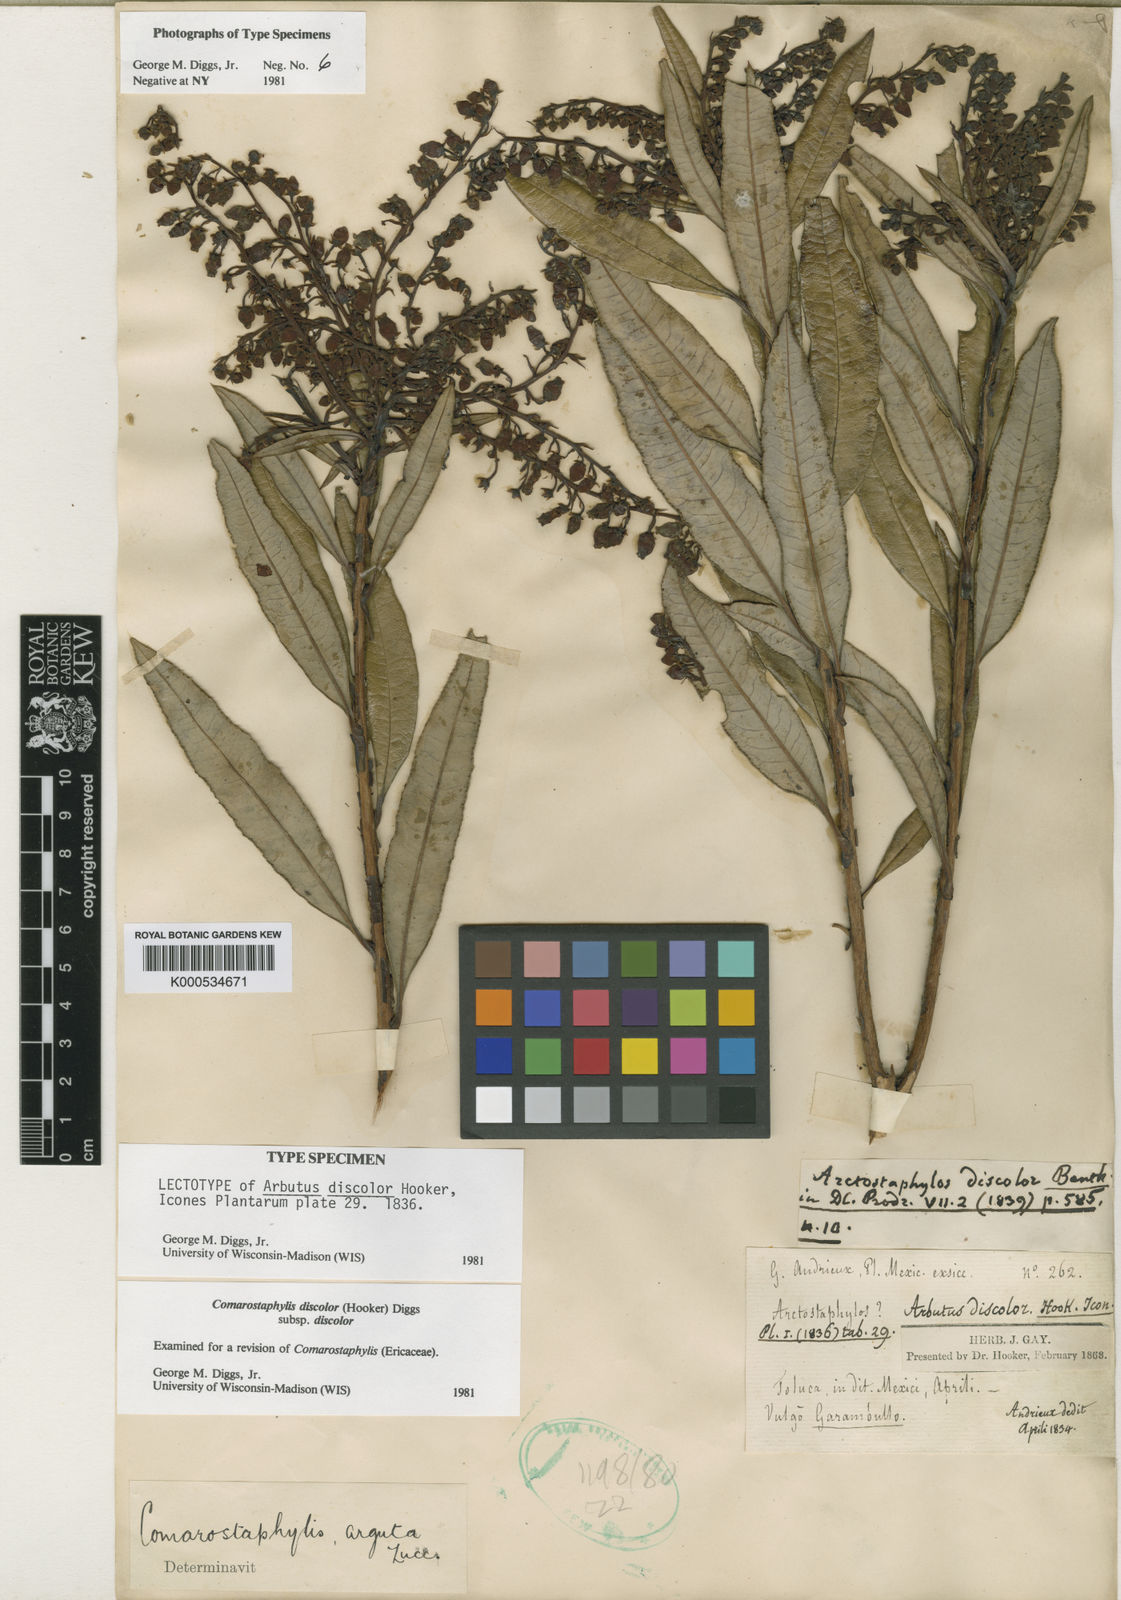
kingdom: Plantae
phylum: Tracheophyta
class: Magnoliopsida
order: Ericales
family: Ericaceae
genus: Comarostaphylis
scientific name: Comarostaphylis discolor
